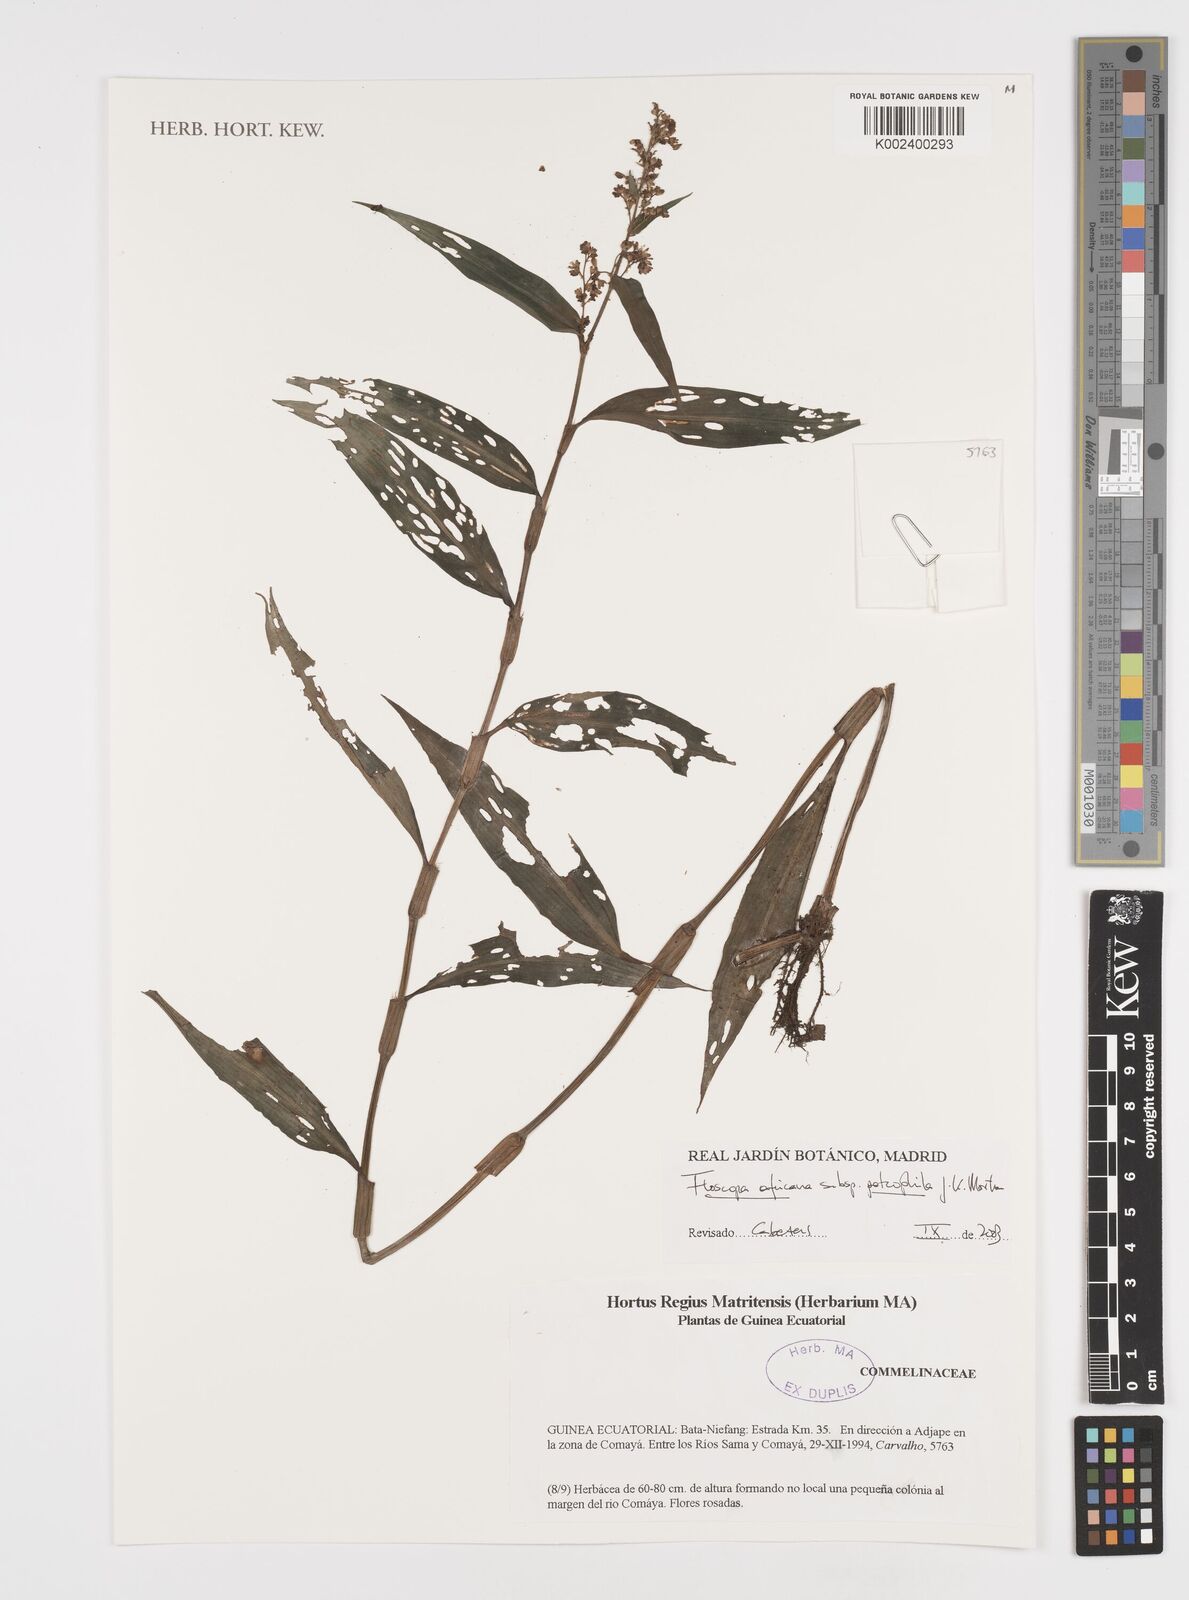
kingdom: Plantae
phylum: Tracheophyta
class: Liliopsida
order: Commelinales
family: Commelinaceae
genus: Floscopa
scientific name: Floscopa africana
